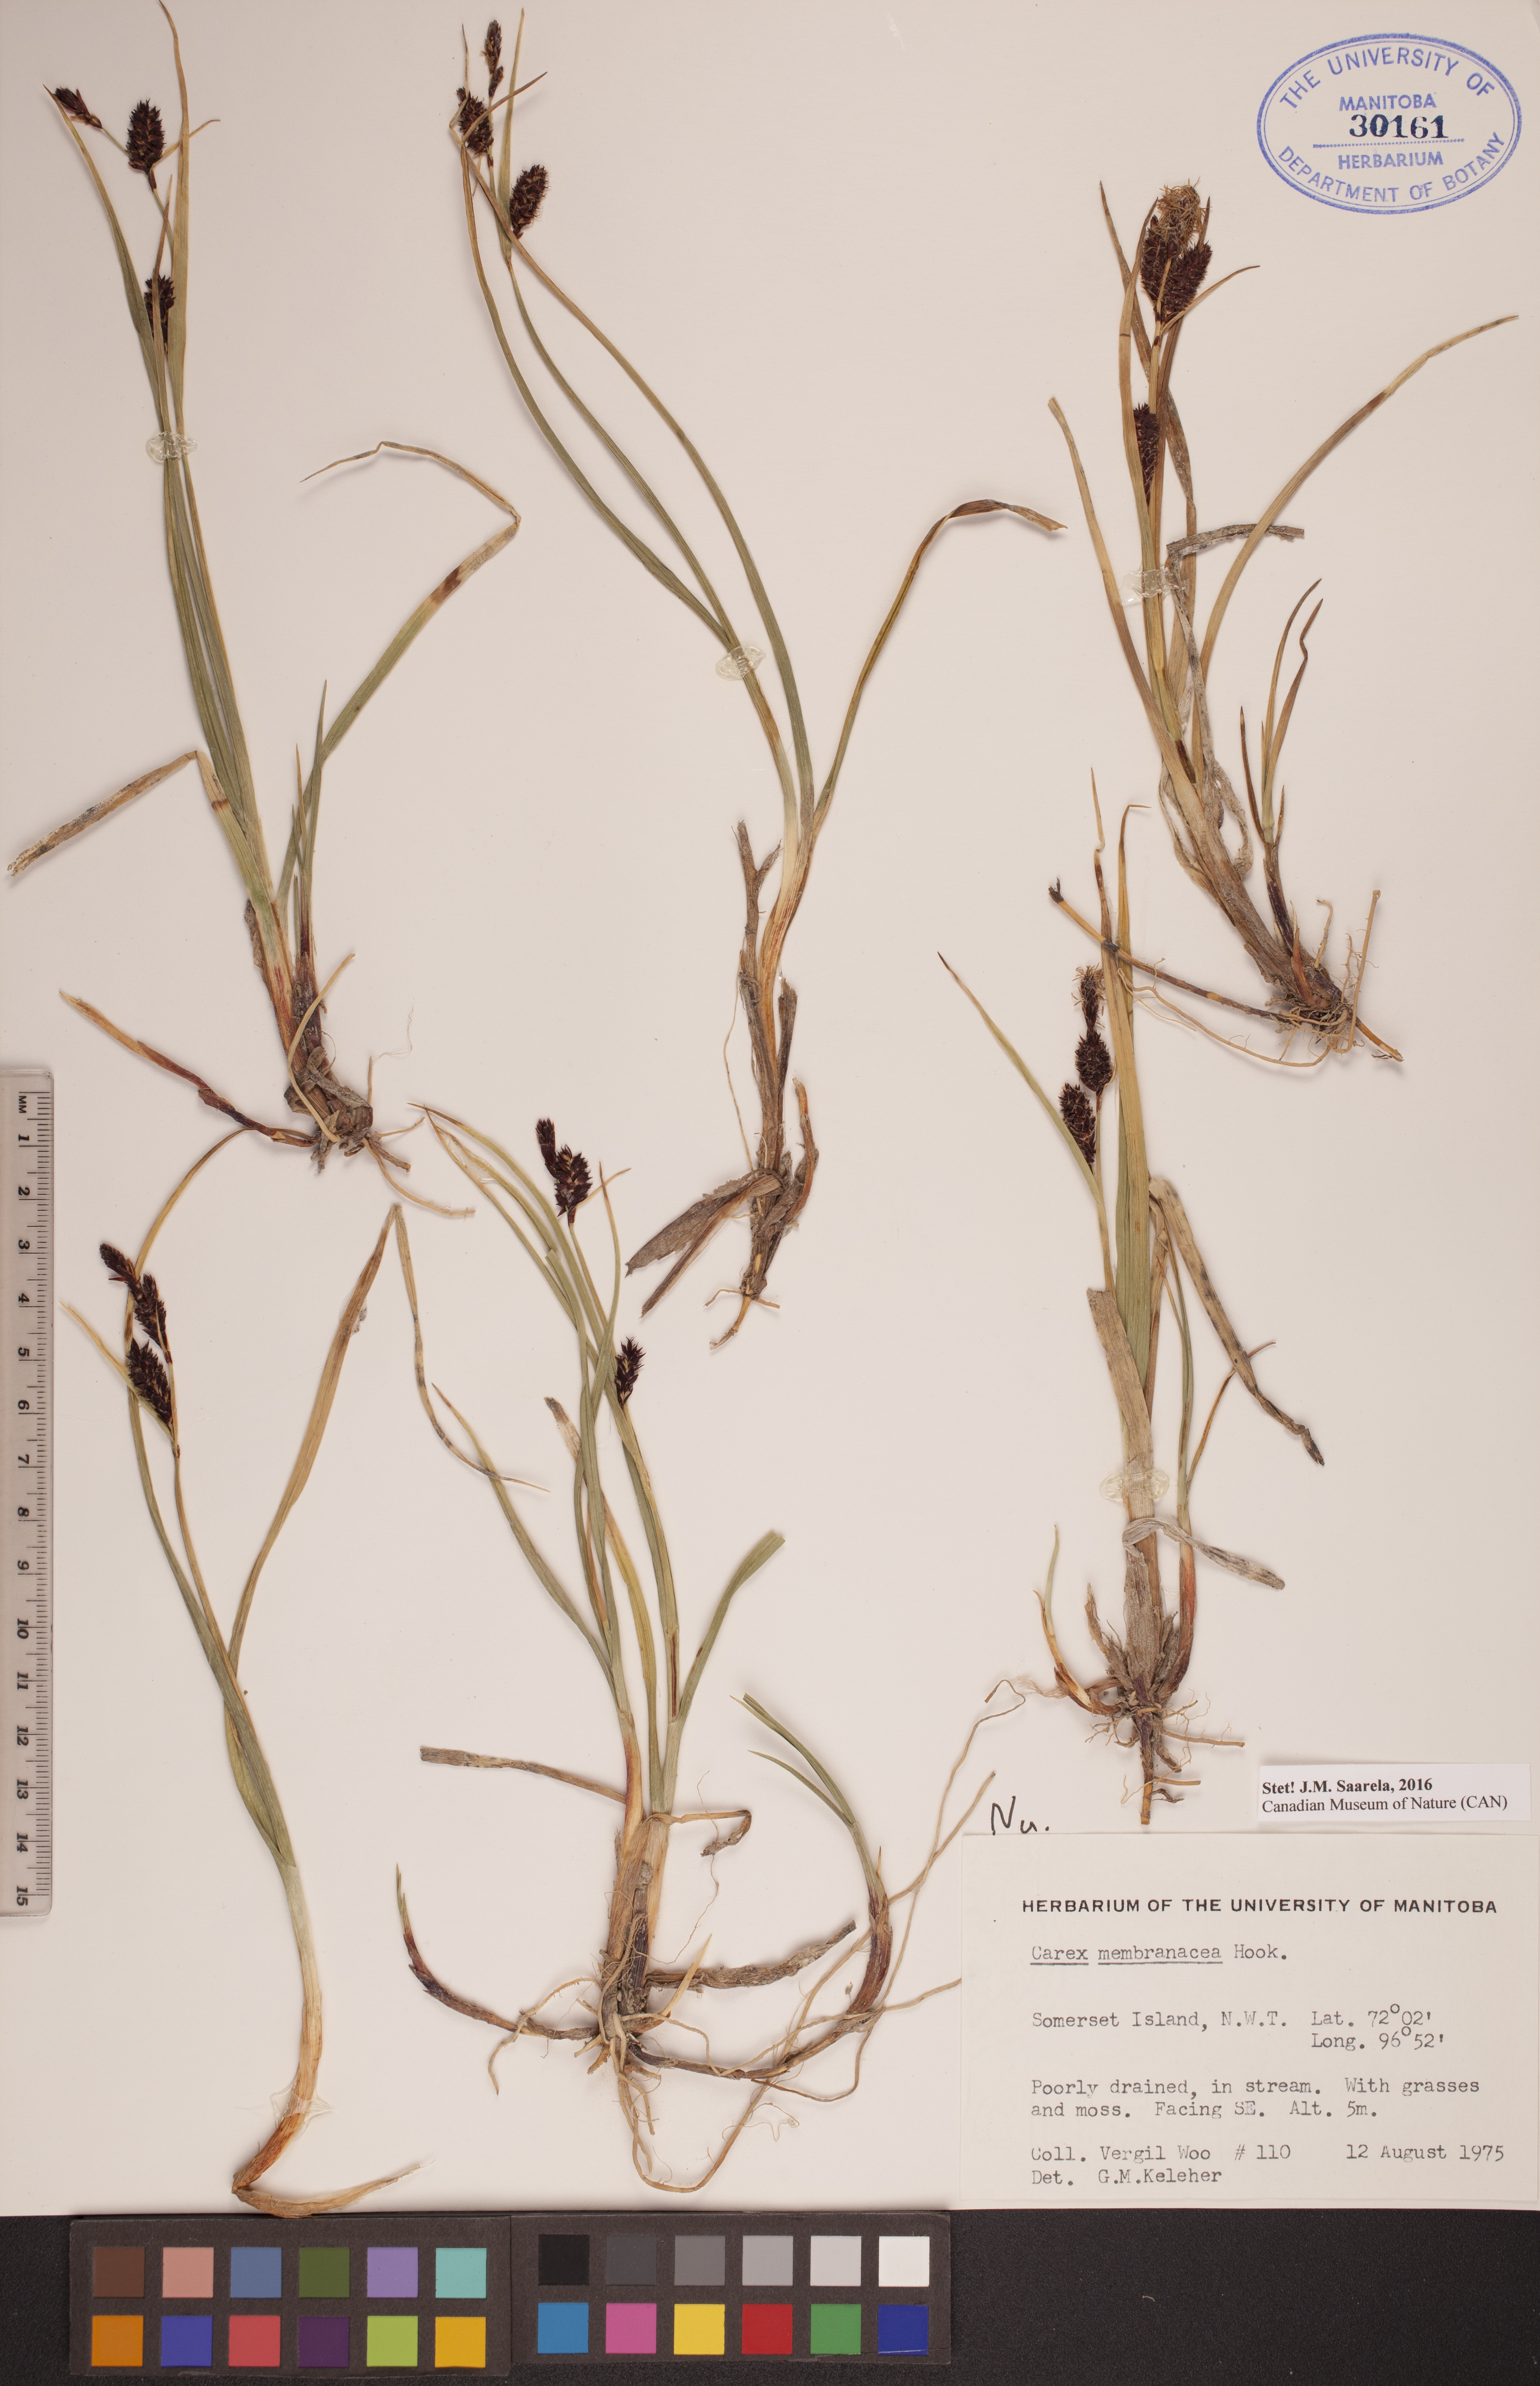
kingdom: Plantae
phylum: Tracheophyta
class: Liliopsida
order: Poales
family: Cyperaceae
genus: Carex
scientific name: Carex membranacea
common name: Fragile sedge
